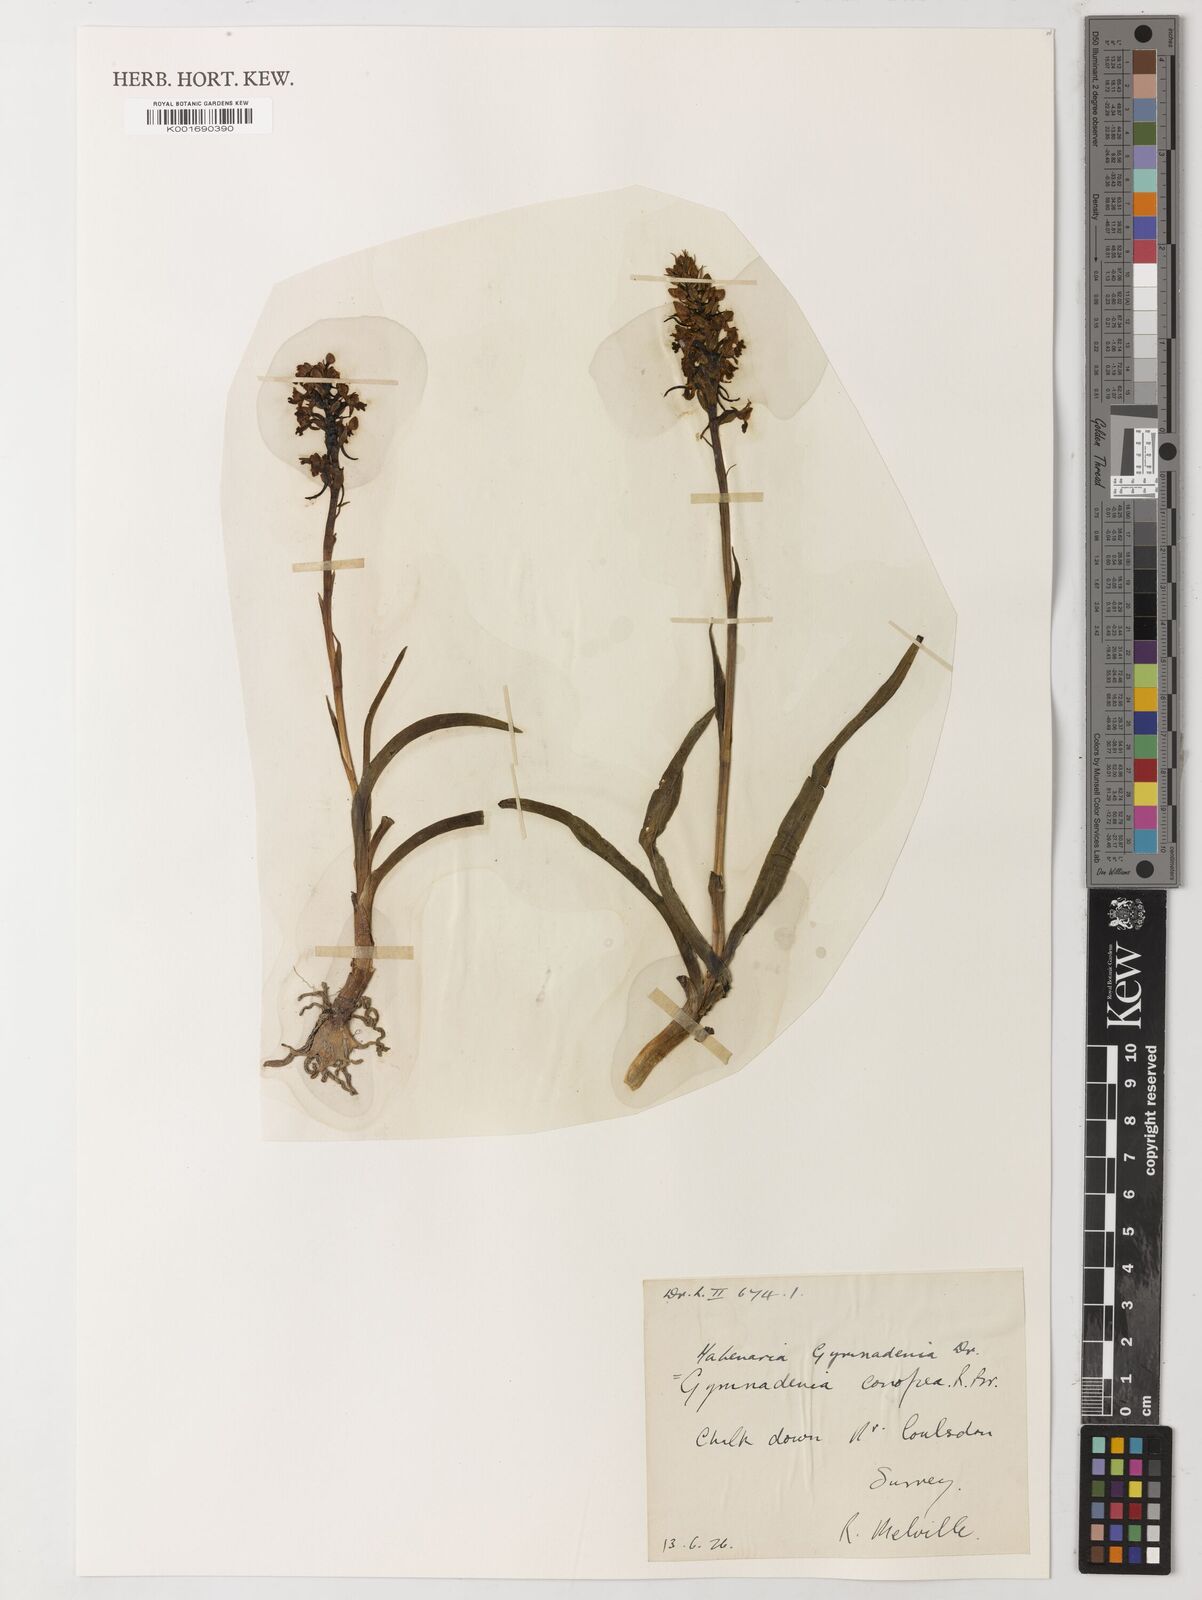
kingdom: Plantae
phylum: Tracheophyta
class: Magnoliopsida
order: Fabales
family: Fabaceae
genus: Goniorrhachis
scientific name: Goniorrhachis marginata
